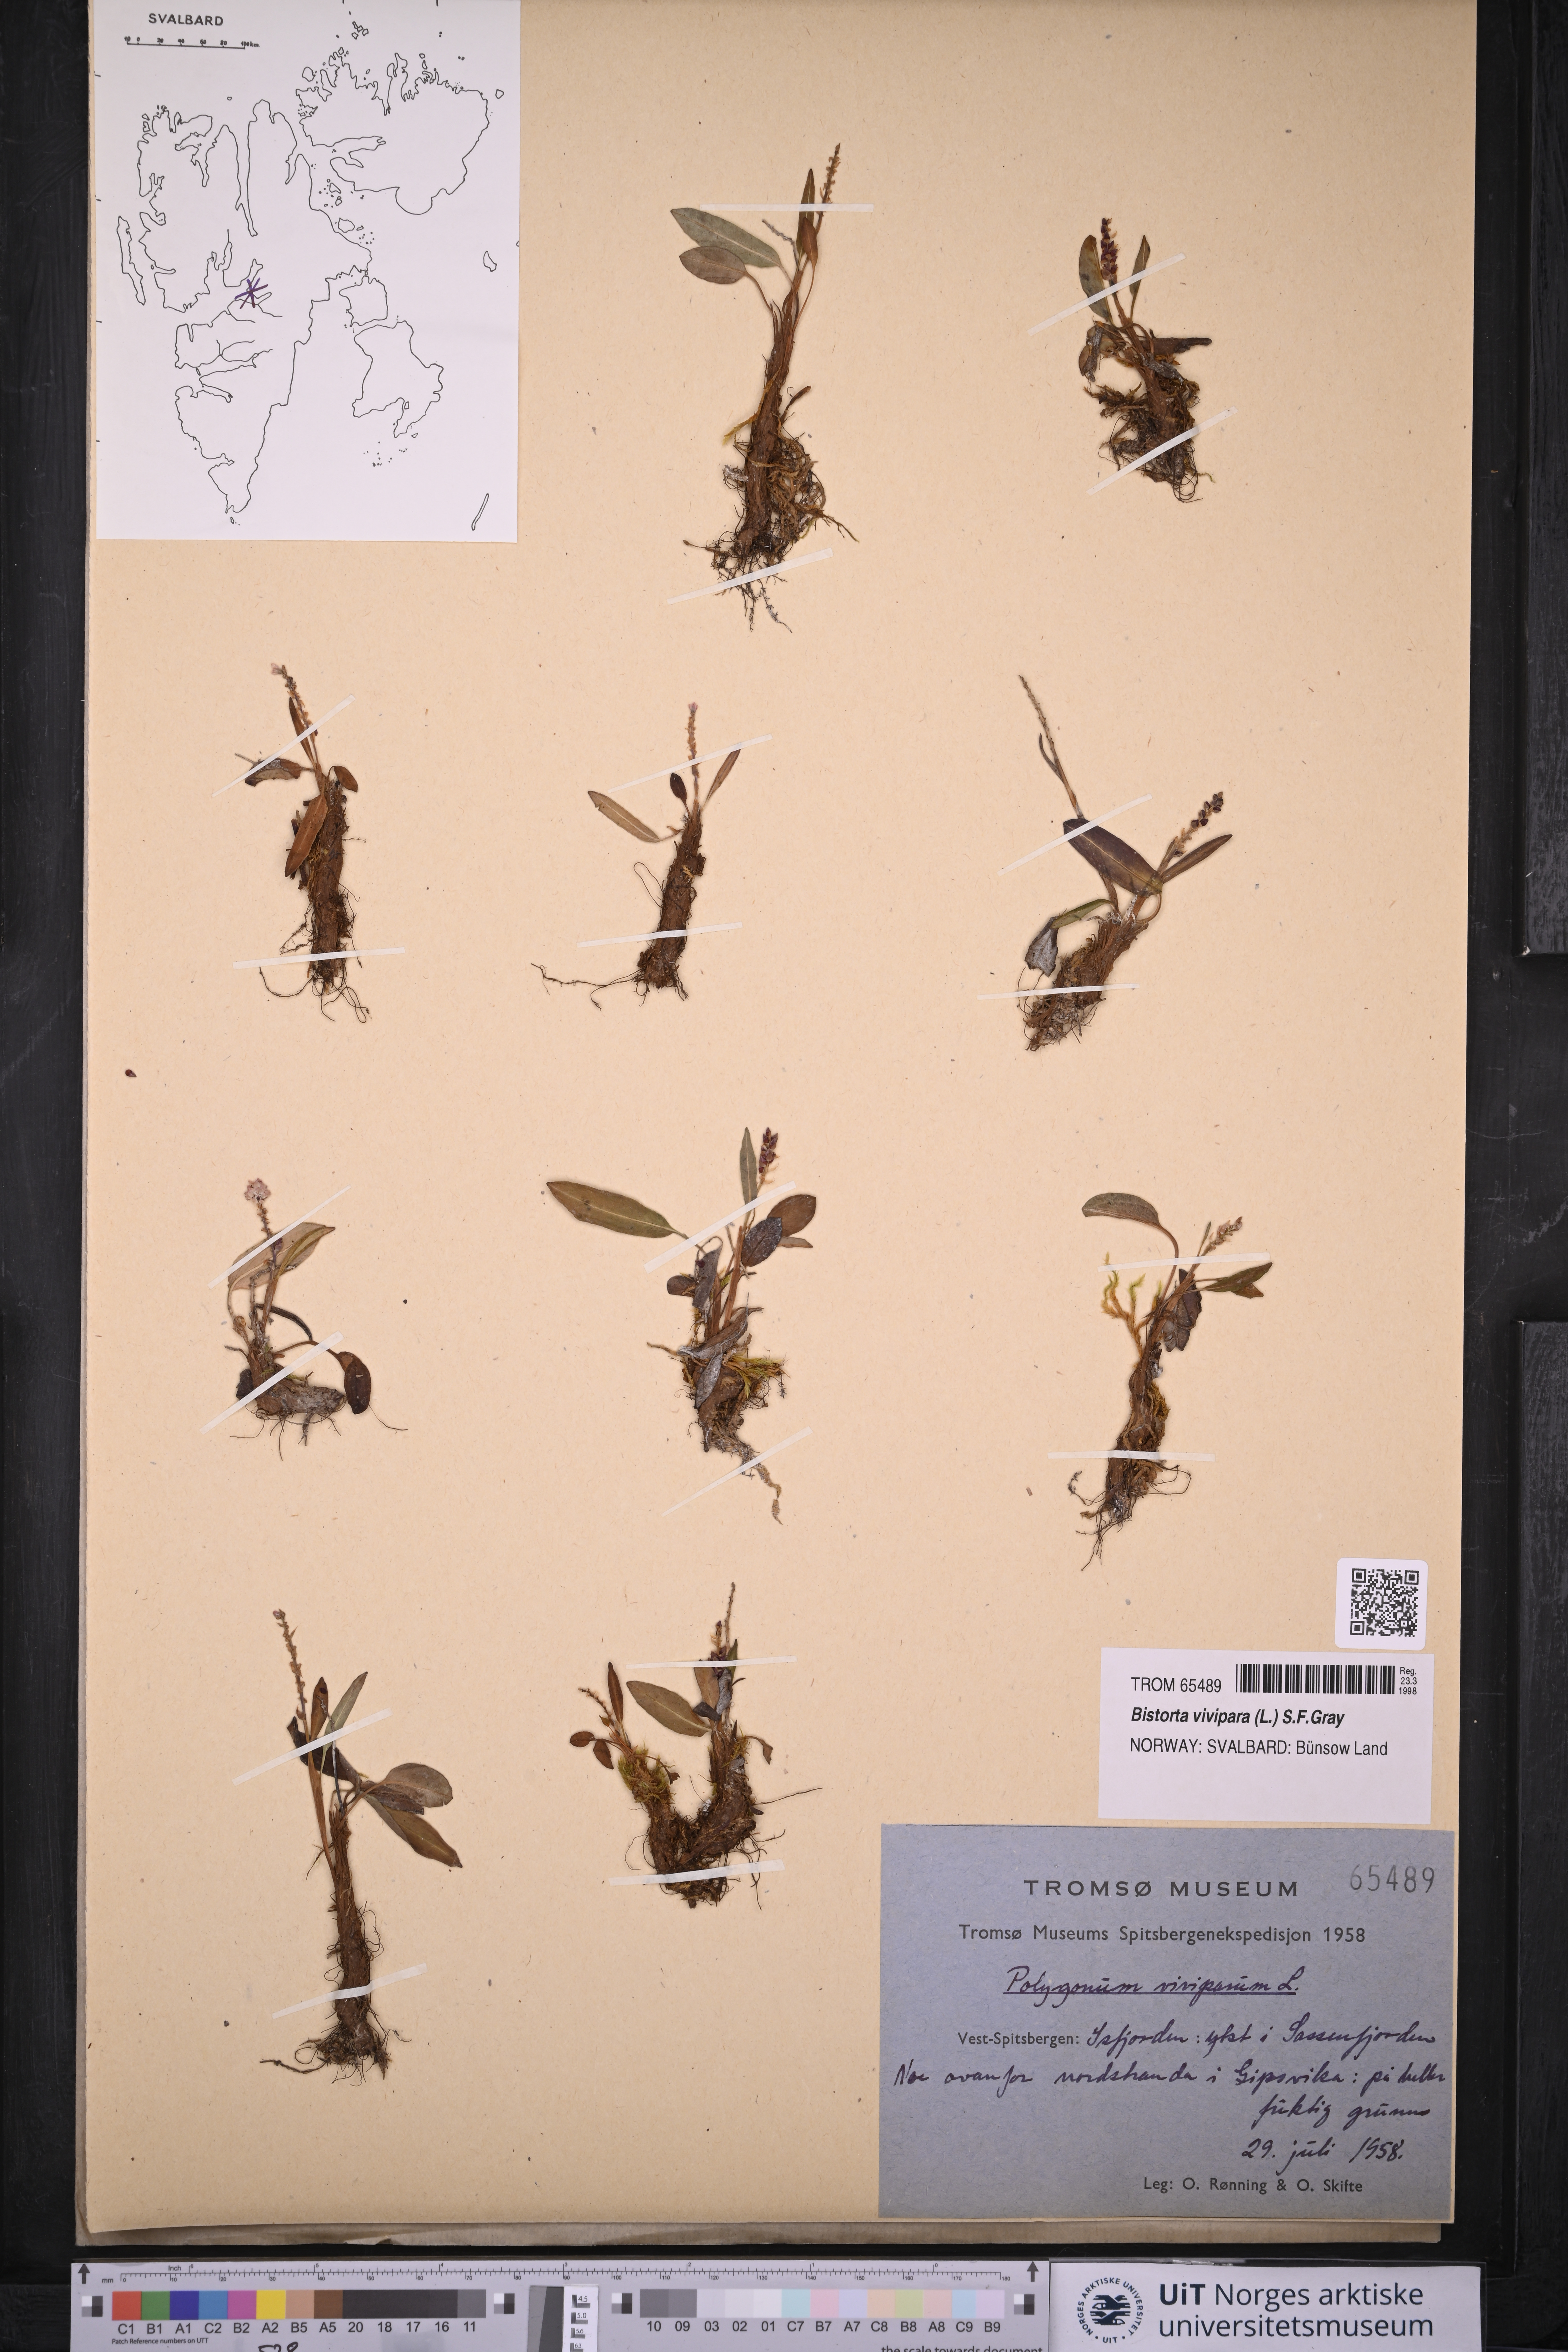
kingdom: Plantae
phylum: Tracheophyta
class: Magnoliopsida
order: Caryophyllales
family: Polygonaceae
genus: Bistorta
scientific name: Bistorta vivipara
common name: Alpine bistort
